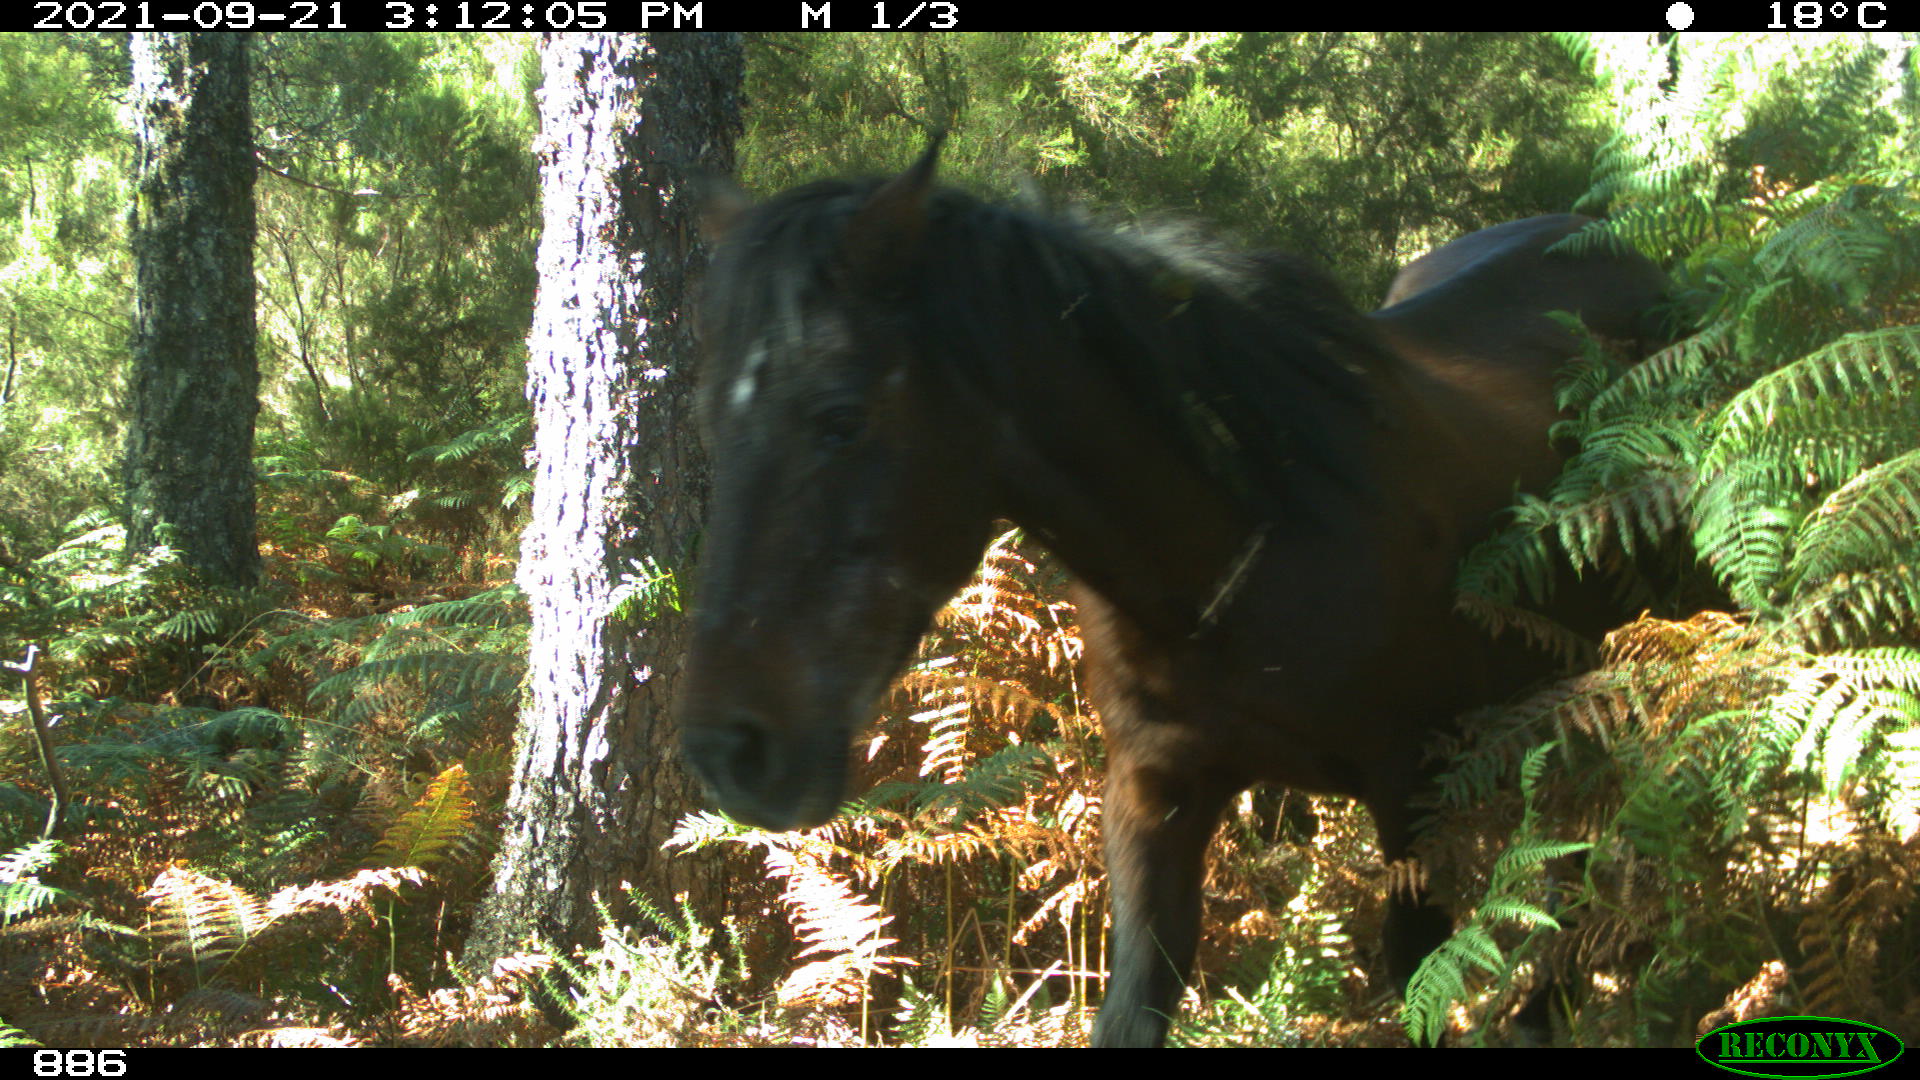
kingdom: Animalia
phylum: Chordata
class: Mammalia
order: Perissodactyla
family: Equidae
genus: Equus
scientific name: Equus caballus
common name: Horse
